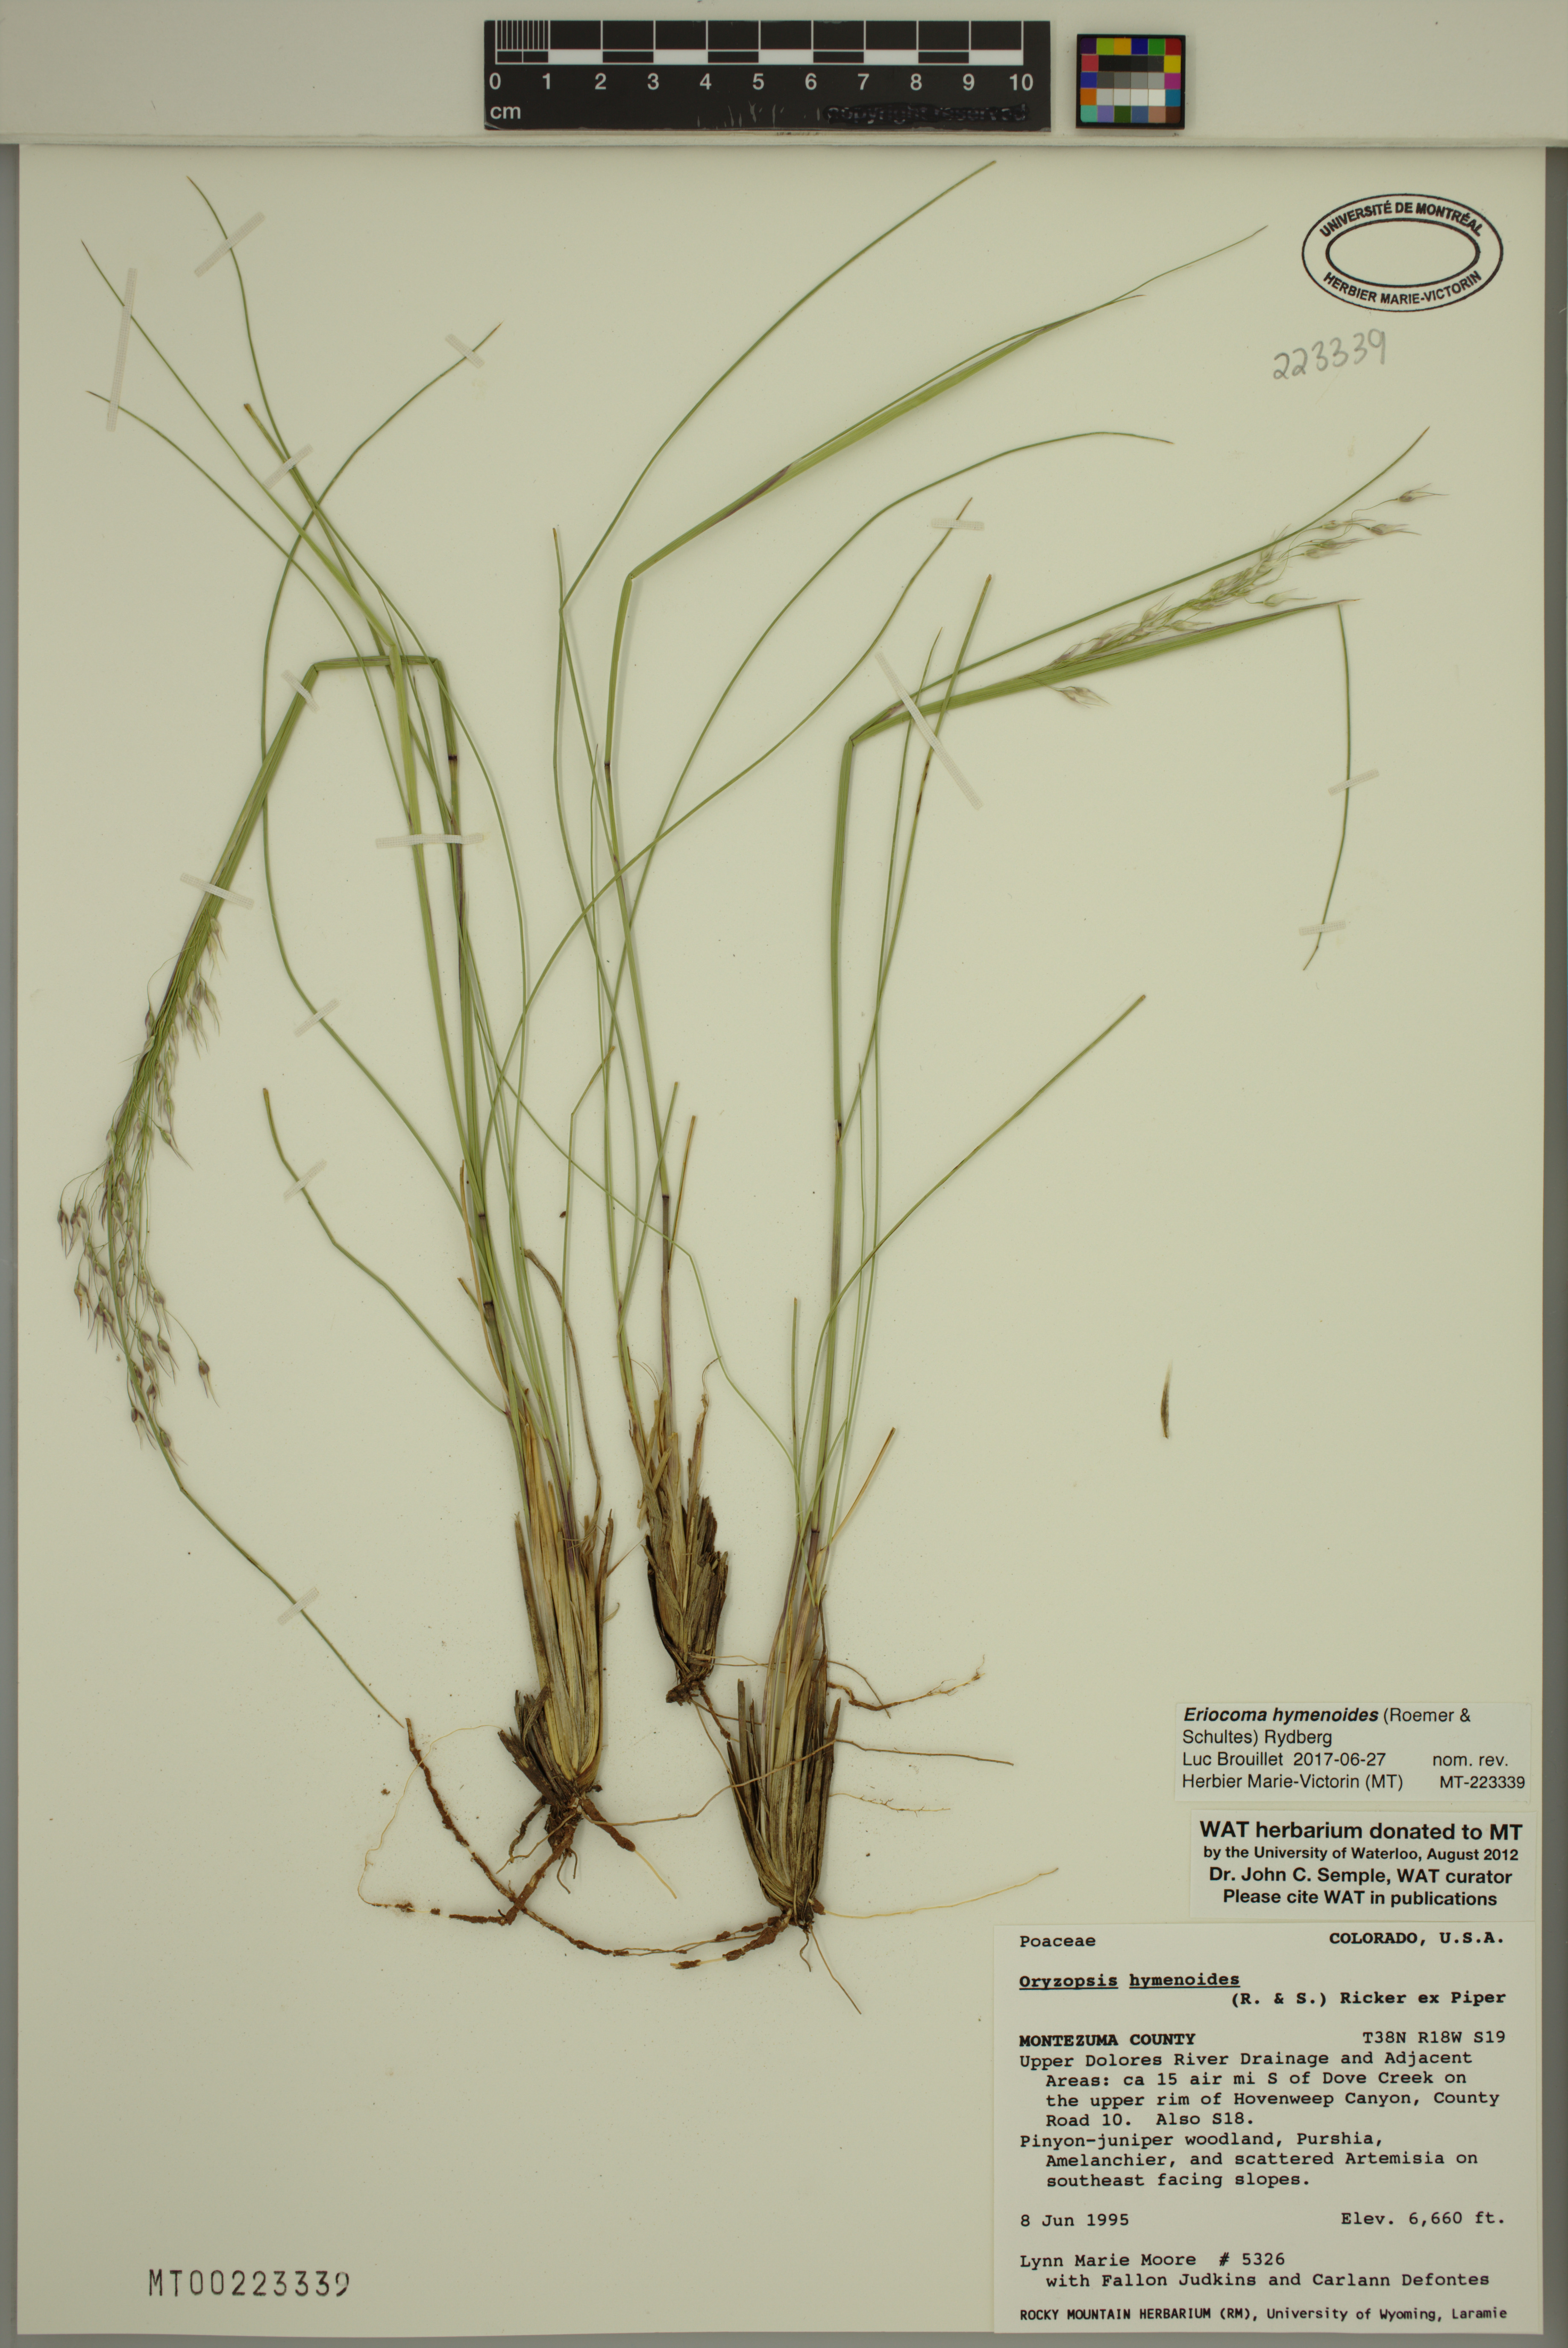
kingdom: Plantae
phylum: Tracheophyta
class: Liliopsida
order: Poales
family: Poaceae
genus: Eriocoma
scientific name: Eriocoma hymenoides
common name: Indian mountain ricegrass
